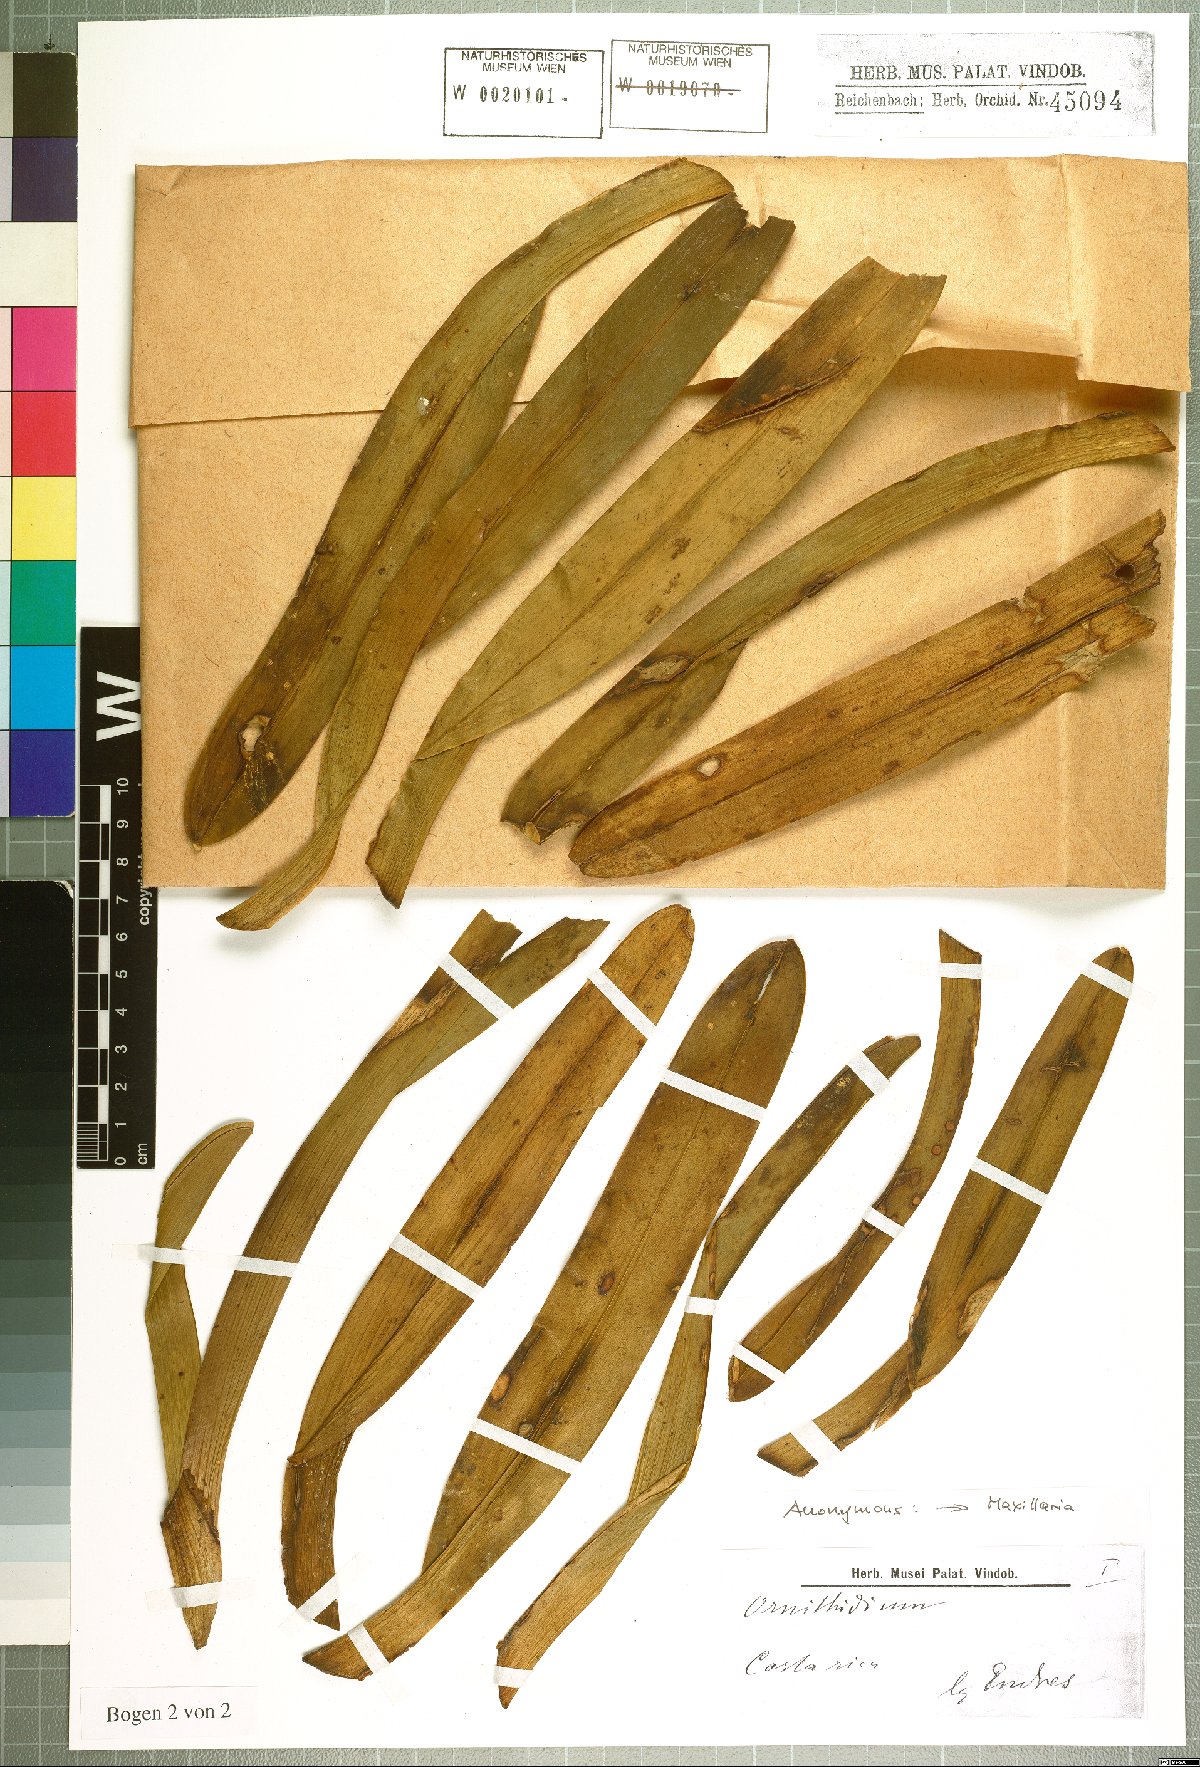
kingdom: Plantae
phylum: Tracheophyta
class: Liliopsida
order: Asparagales
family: Orchidaceae
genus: Maxillaria
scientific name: Maxillaria
